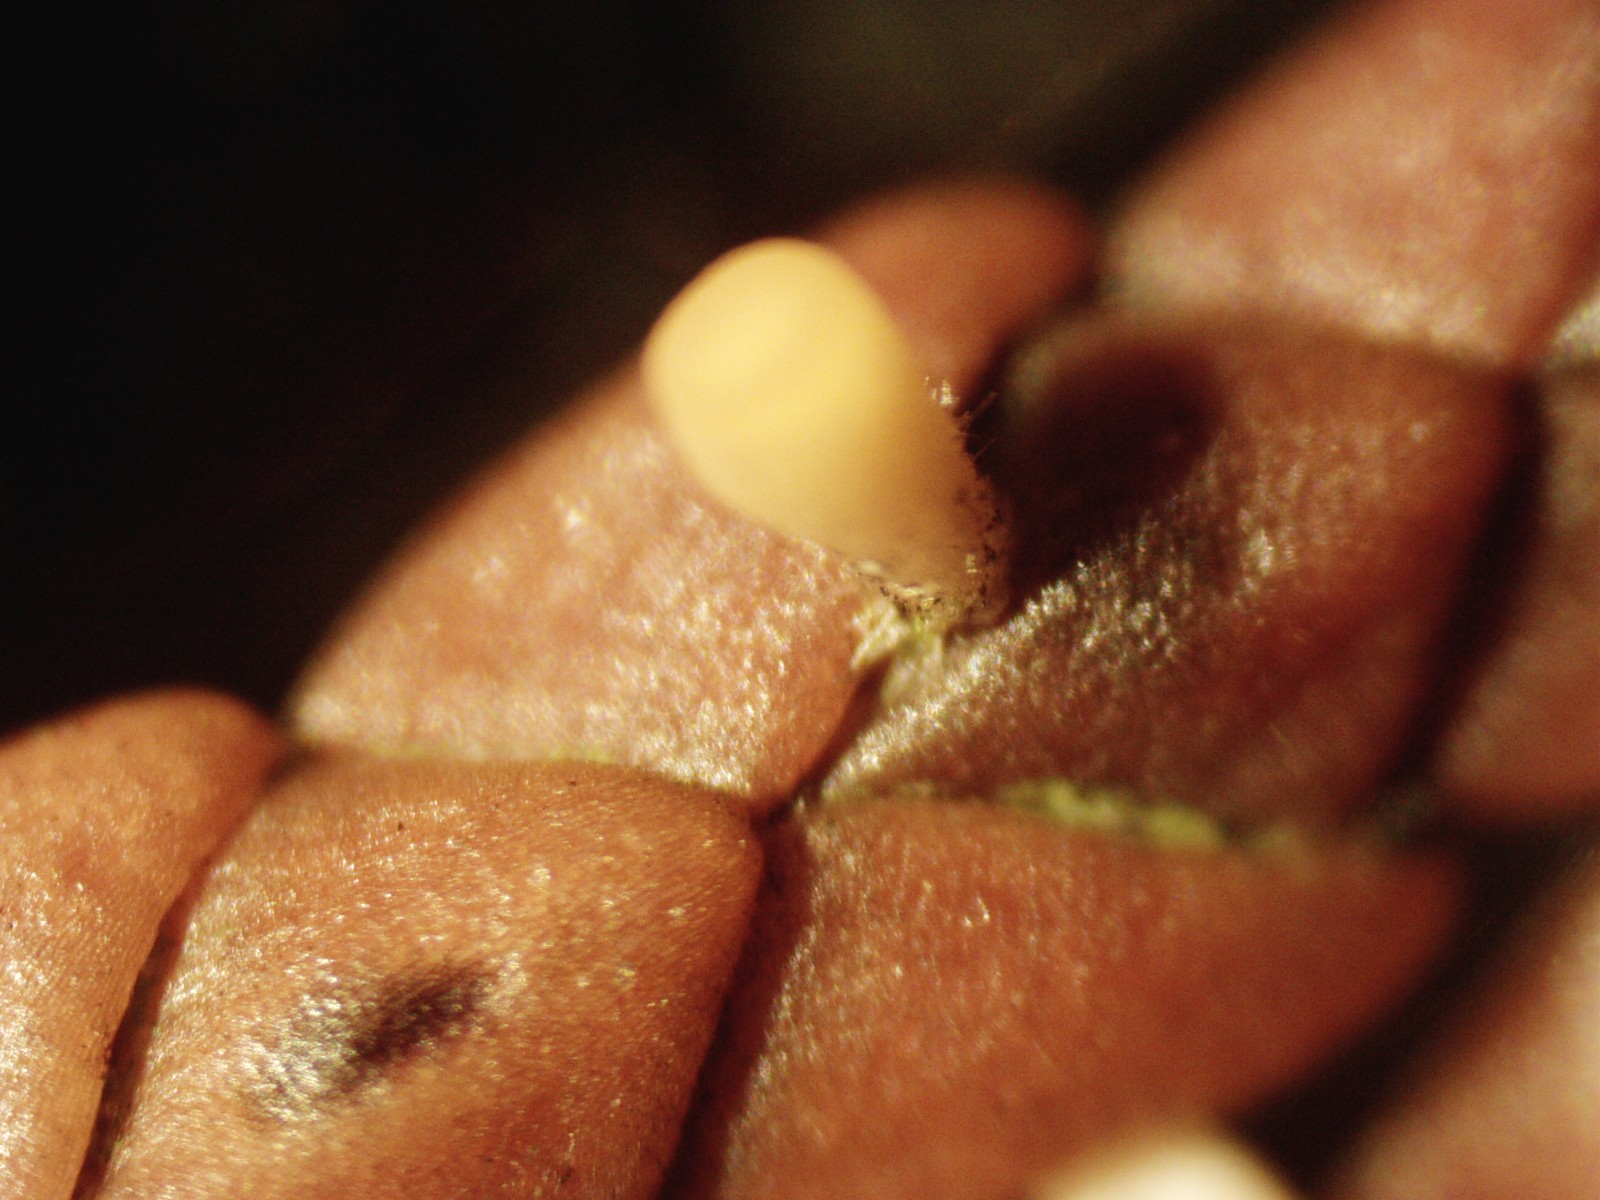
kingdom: Fungi
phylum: Ascomycota
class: Pezizomycetes
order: Pezizales
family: Sarcoscyphaceae
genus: Pithya
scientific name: Pithya cupressina
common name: lille dukatbæger
